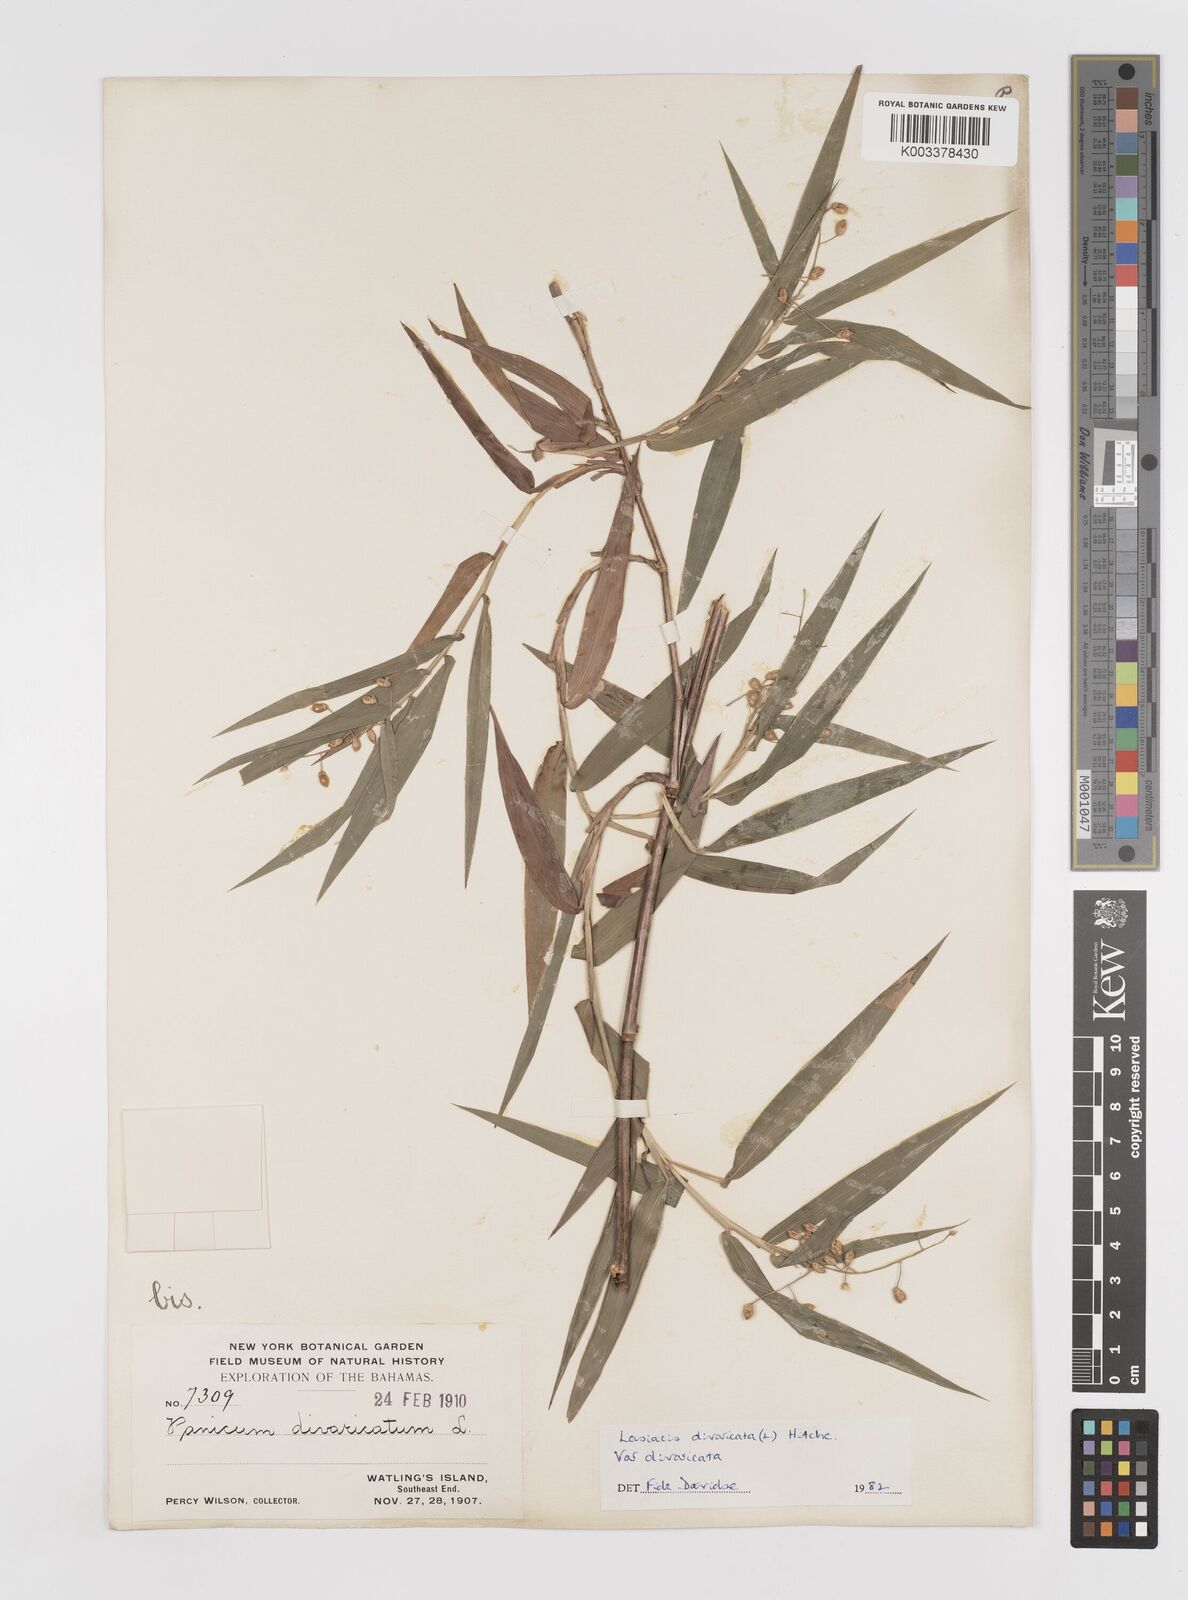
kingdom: Plantae
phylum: Tracheophyta
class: Liliopsida
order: Poales
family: Poaceae
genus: Lasiacis
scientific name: Lasiacis divaricata
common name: Smallcane
